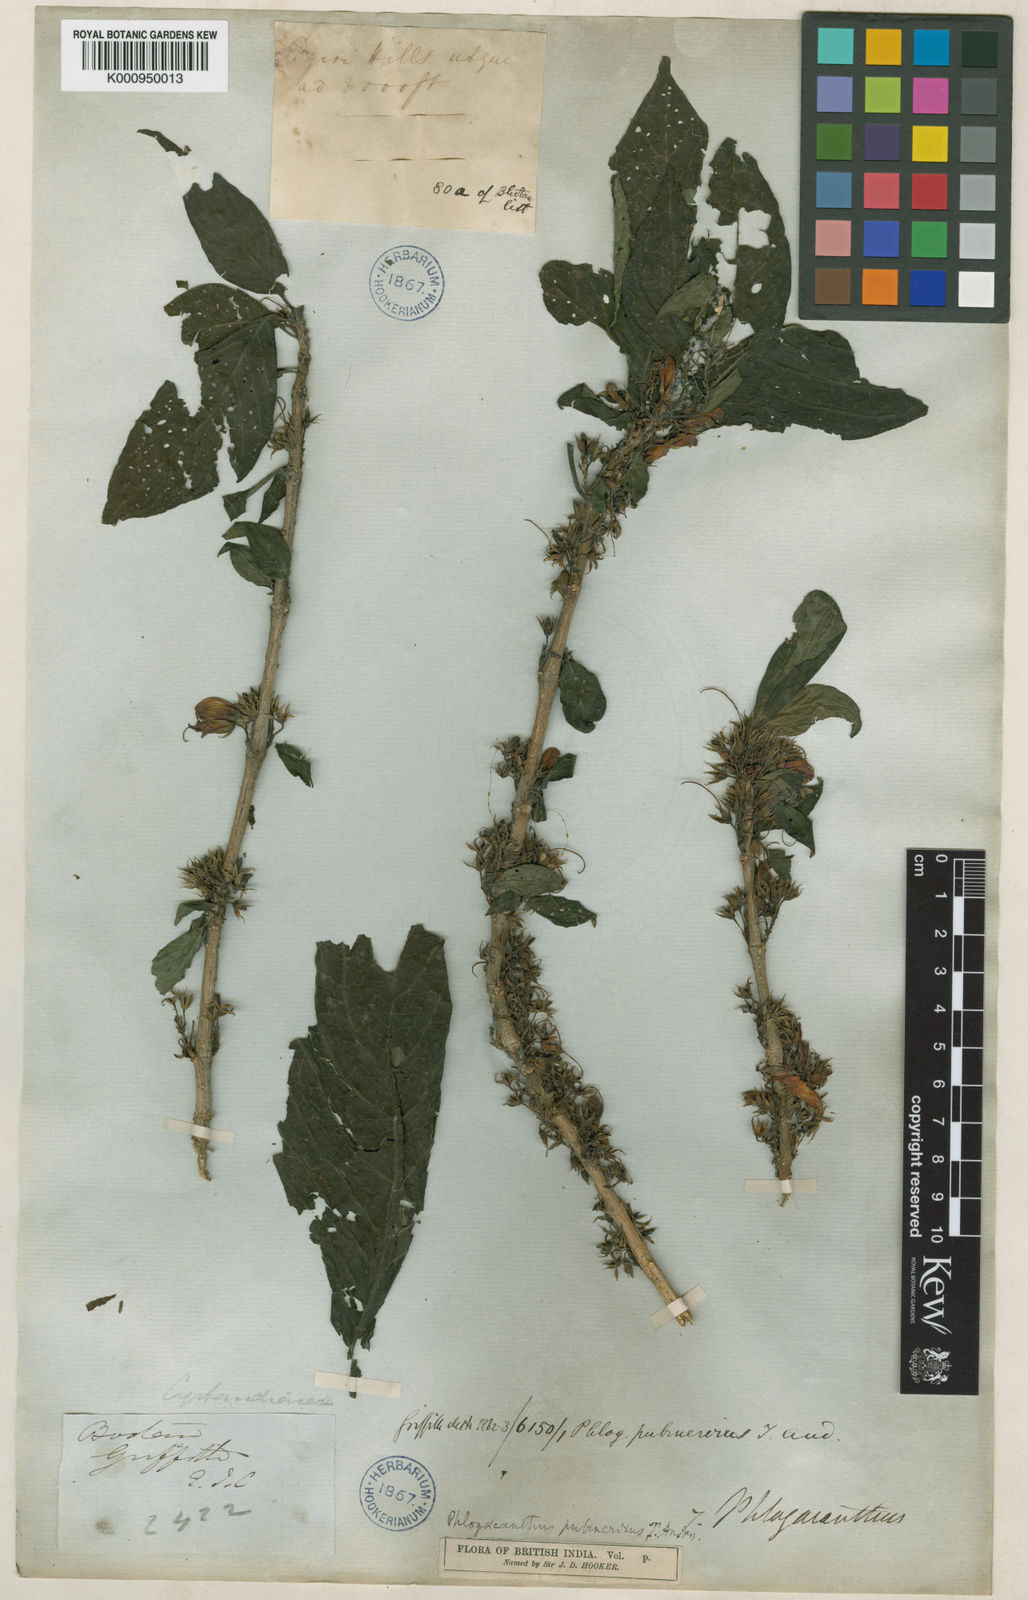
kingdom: Plantae
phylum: Tracheophyta
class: Magnoliopsida
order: Lamiales
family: Acanthaceae
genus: Phlogacanthus
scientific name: Phlogacanthus pubinervius
